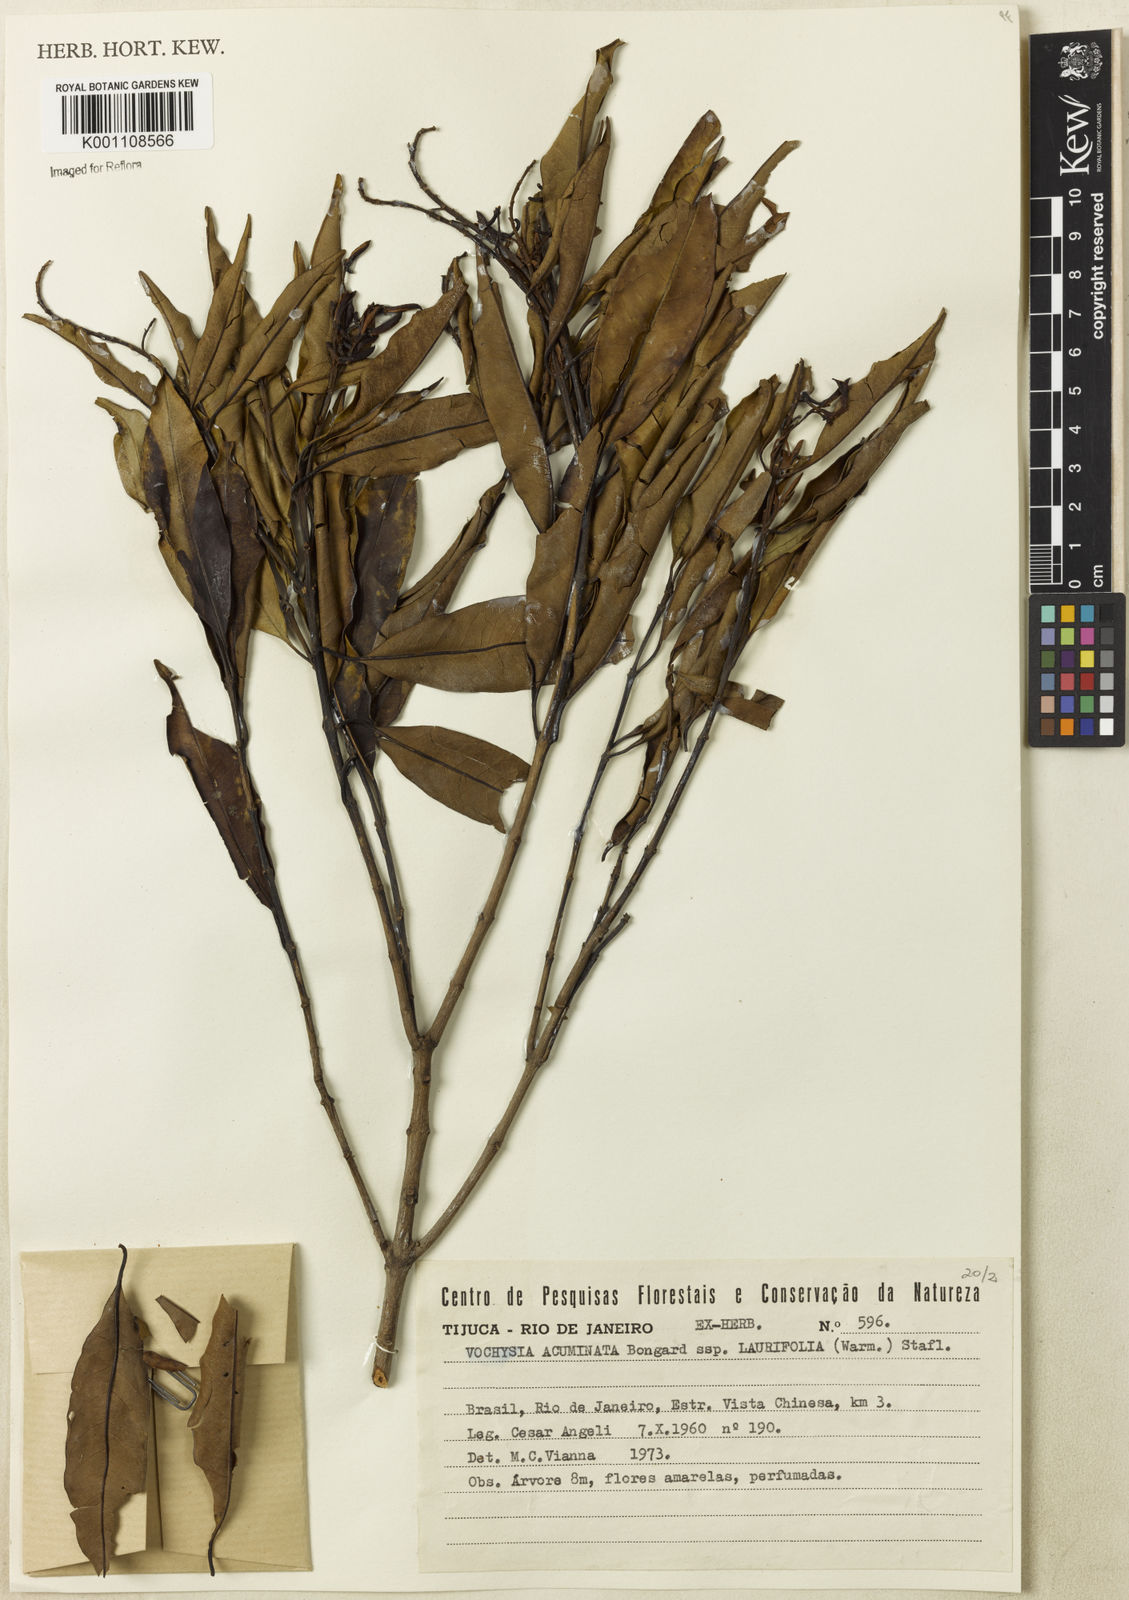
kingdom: Plantae
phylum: Tracheophyta
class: Magnoliopsida
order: Myrtales
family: Vochysiaceae
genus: Vochysia
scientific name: Vochysia laurifolia
